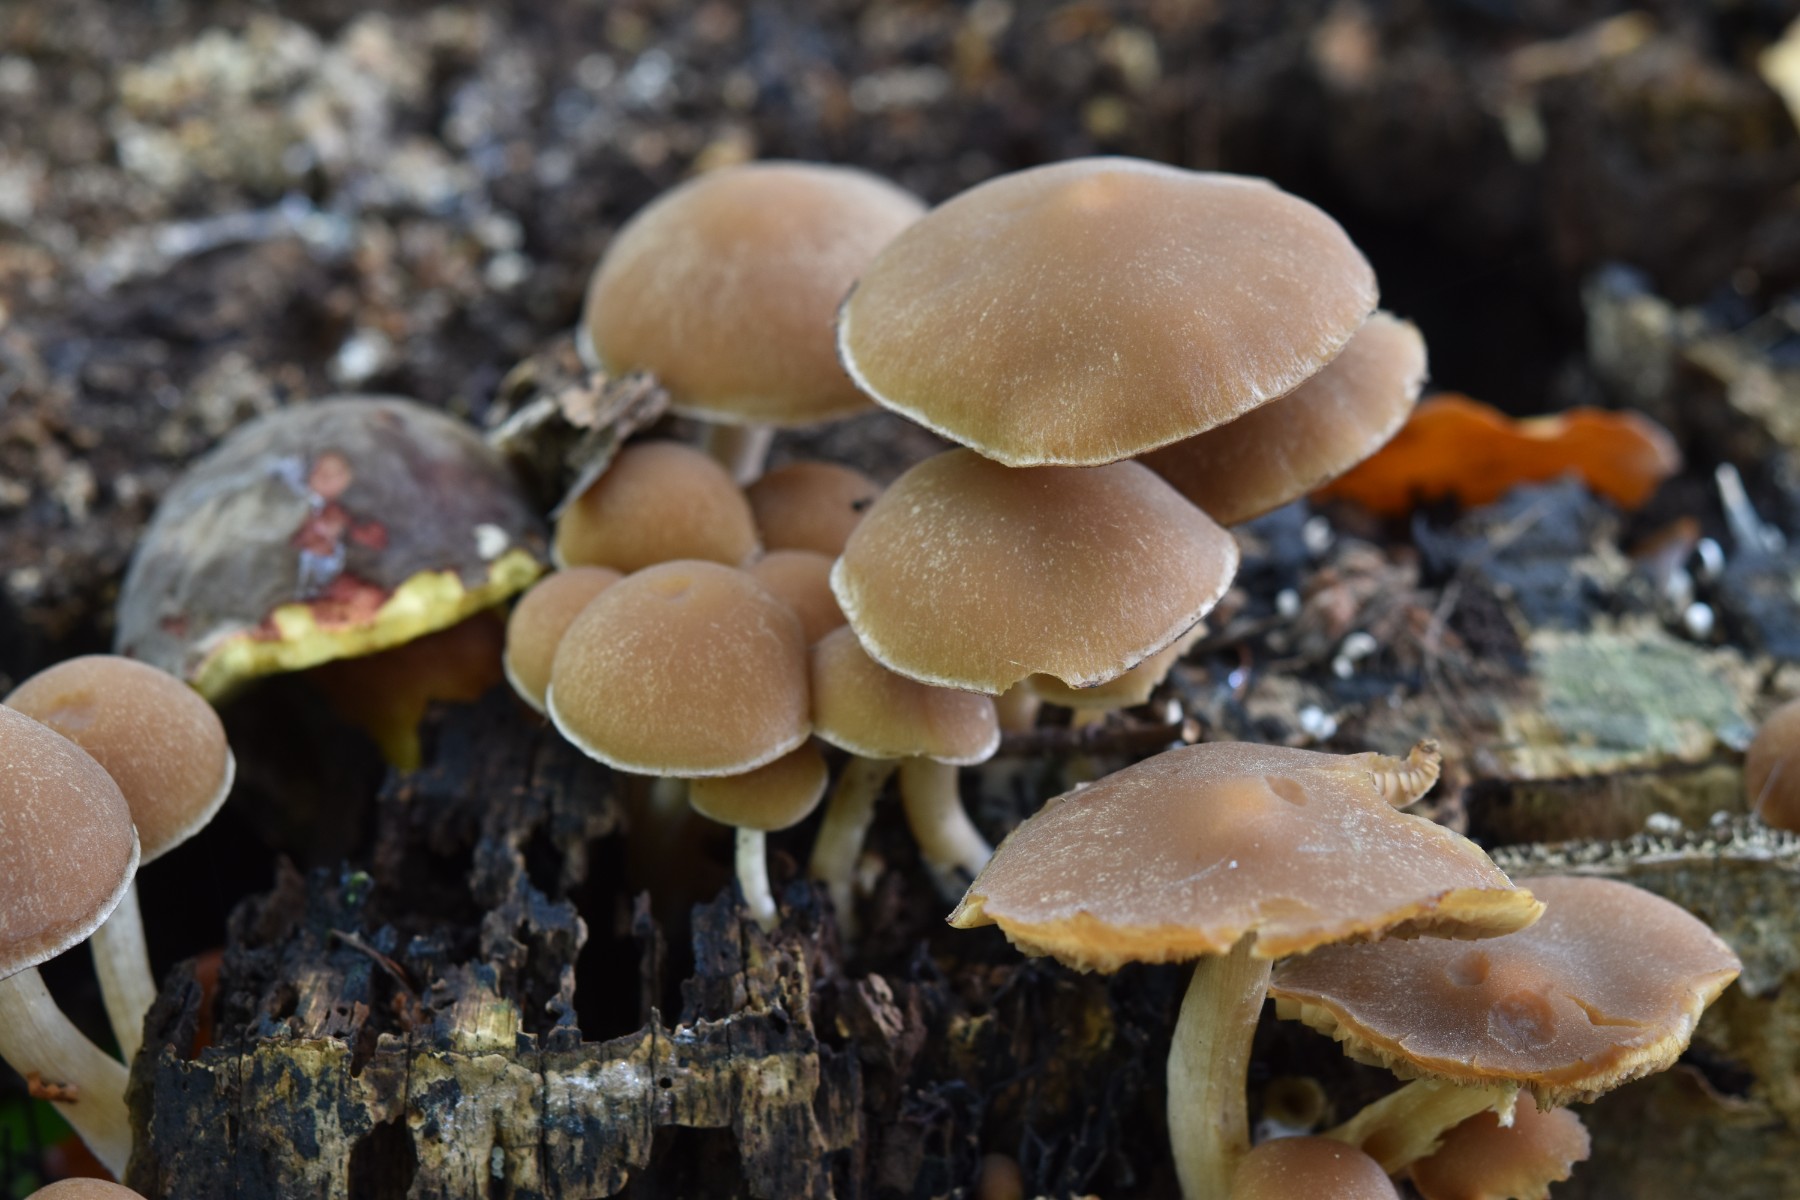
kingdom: Fungi
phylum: Basidiomycota
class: Agaricomycetes
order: Agaricales
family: Psathyrellaceae
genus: Psathyrella
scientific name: Psathyrella piluliformis
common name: lysstokket mørkhat
